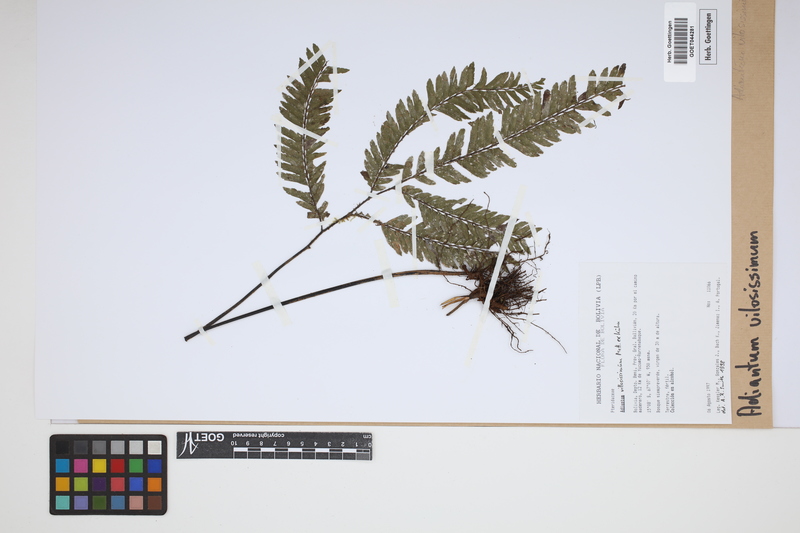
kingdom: Plantae
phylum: Tracheophyta
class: Polypodiopsida
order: Polypodiales
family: Pteridaceae
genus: Adiantum
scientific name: Adiantum villosissimum
